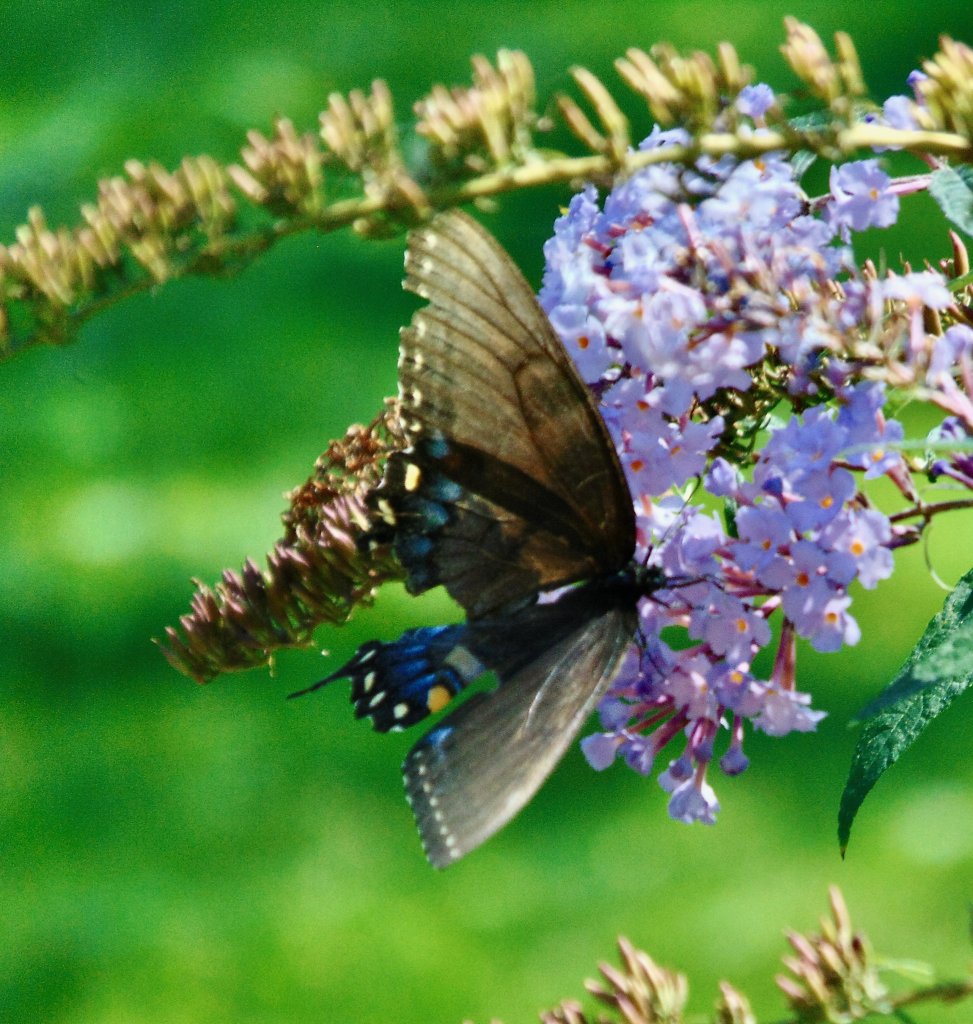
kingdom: Animalia
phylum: Arthropoda
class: Insecta
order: Lepidoptera
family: Papilionidae
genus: Pterourus
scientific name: Pterourus glaucus
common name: Eastern Tiger Swallowtail
